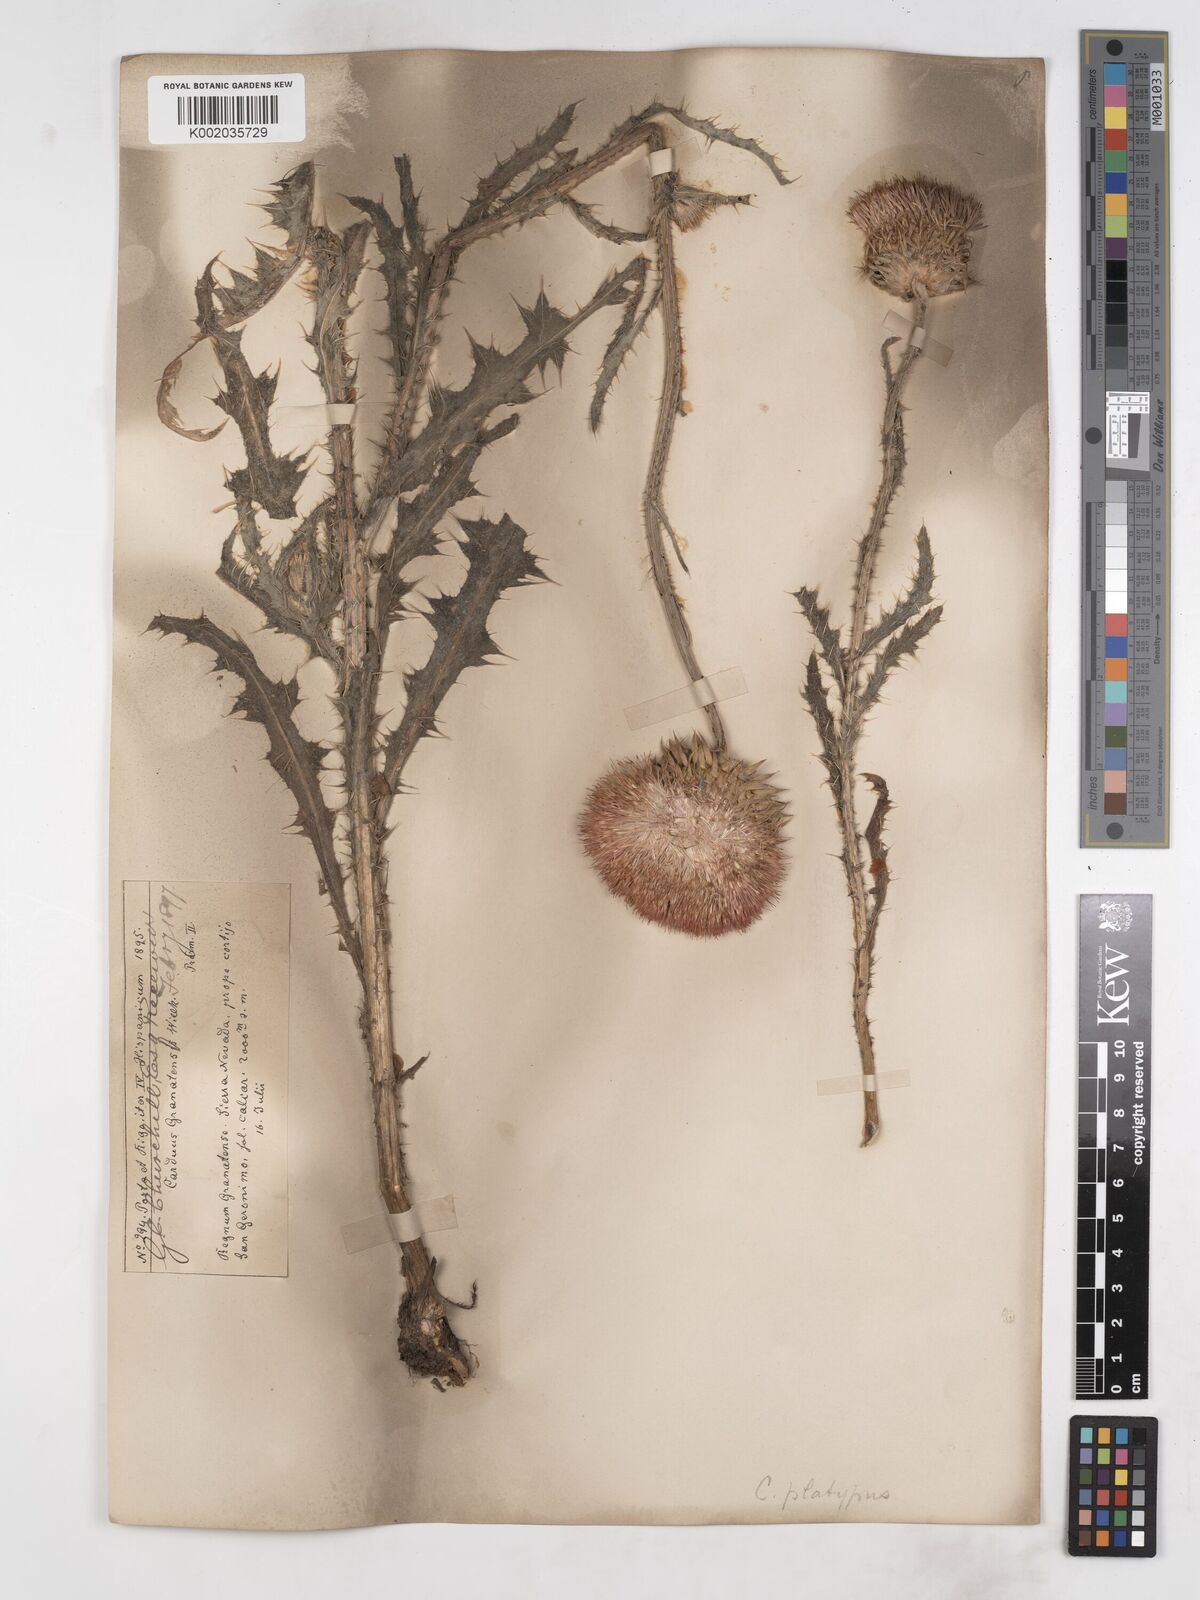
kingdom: Plantae
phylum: Tracheophyta
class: Magnoliopsida
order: Asterales
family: Asteraceae
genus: Carduus
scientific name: Carduus platypus
